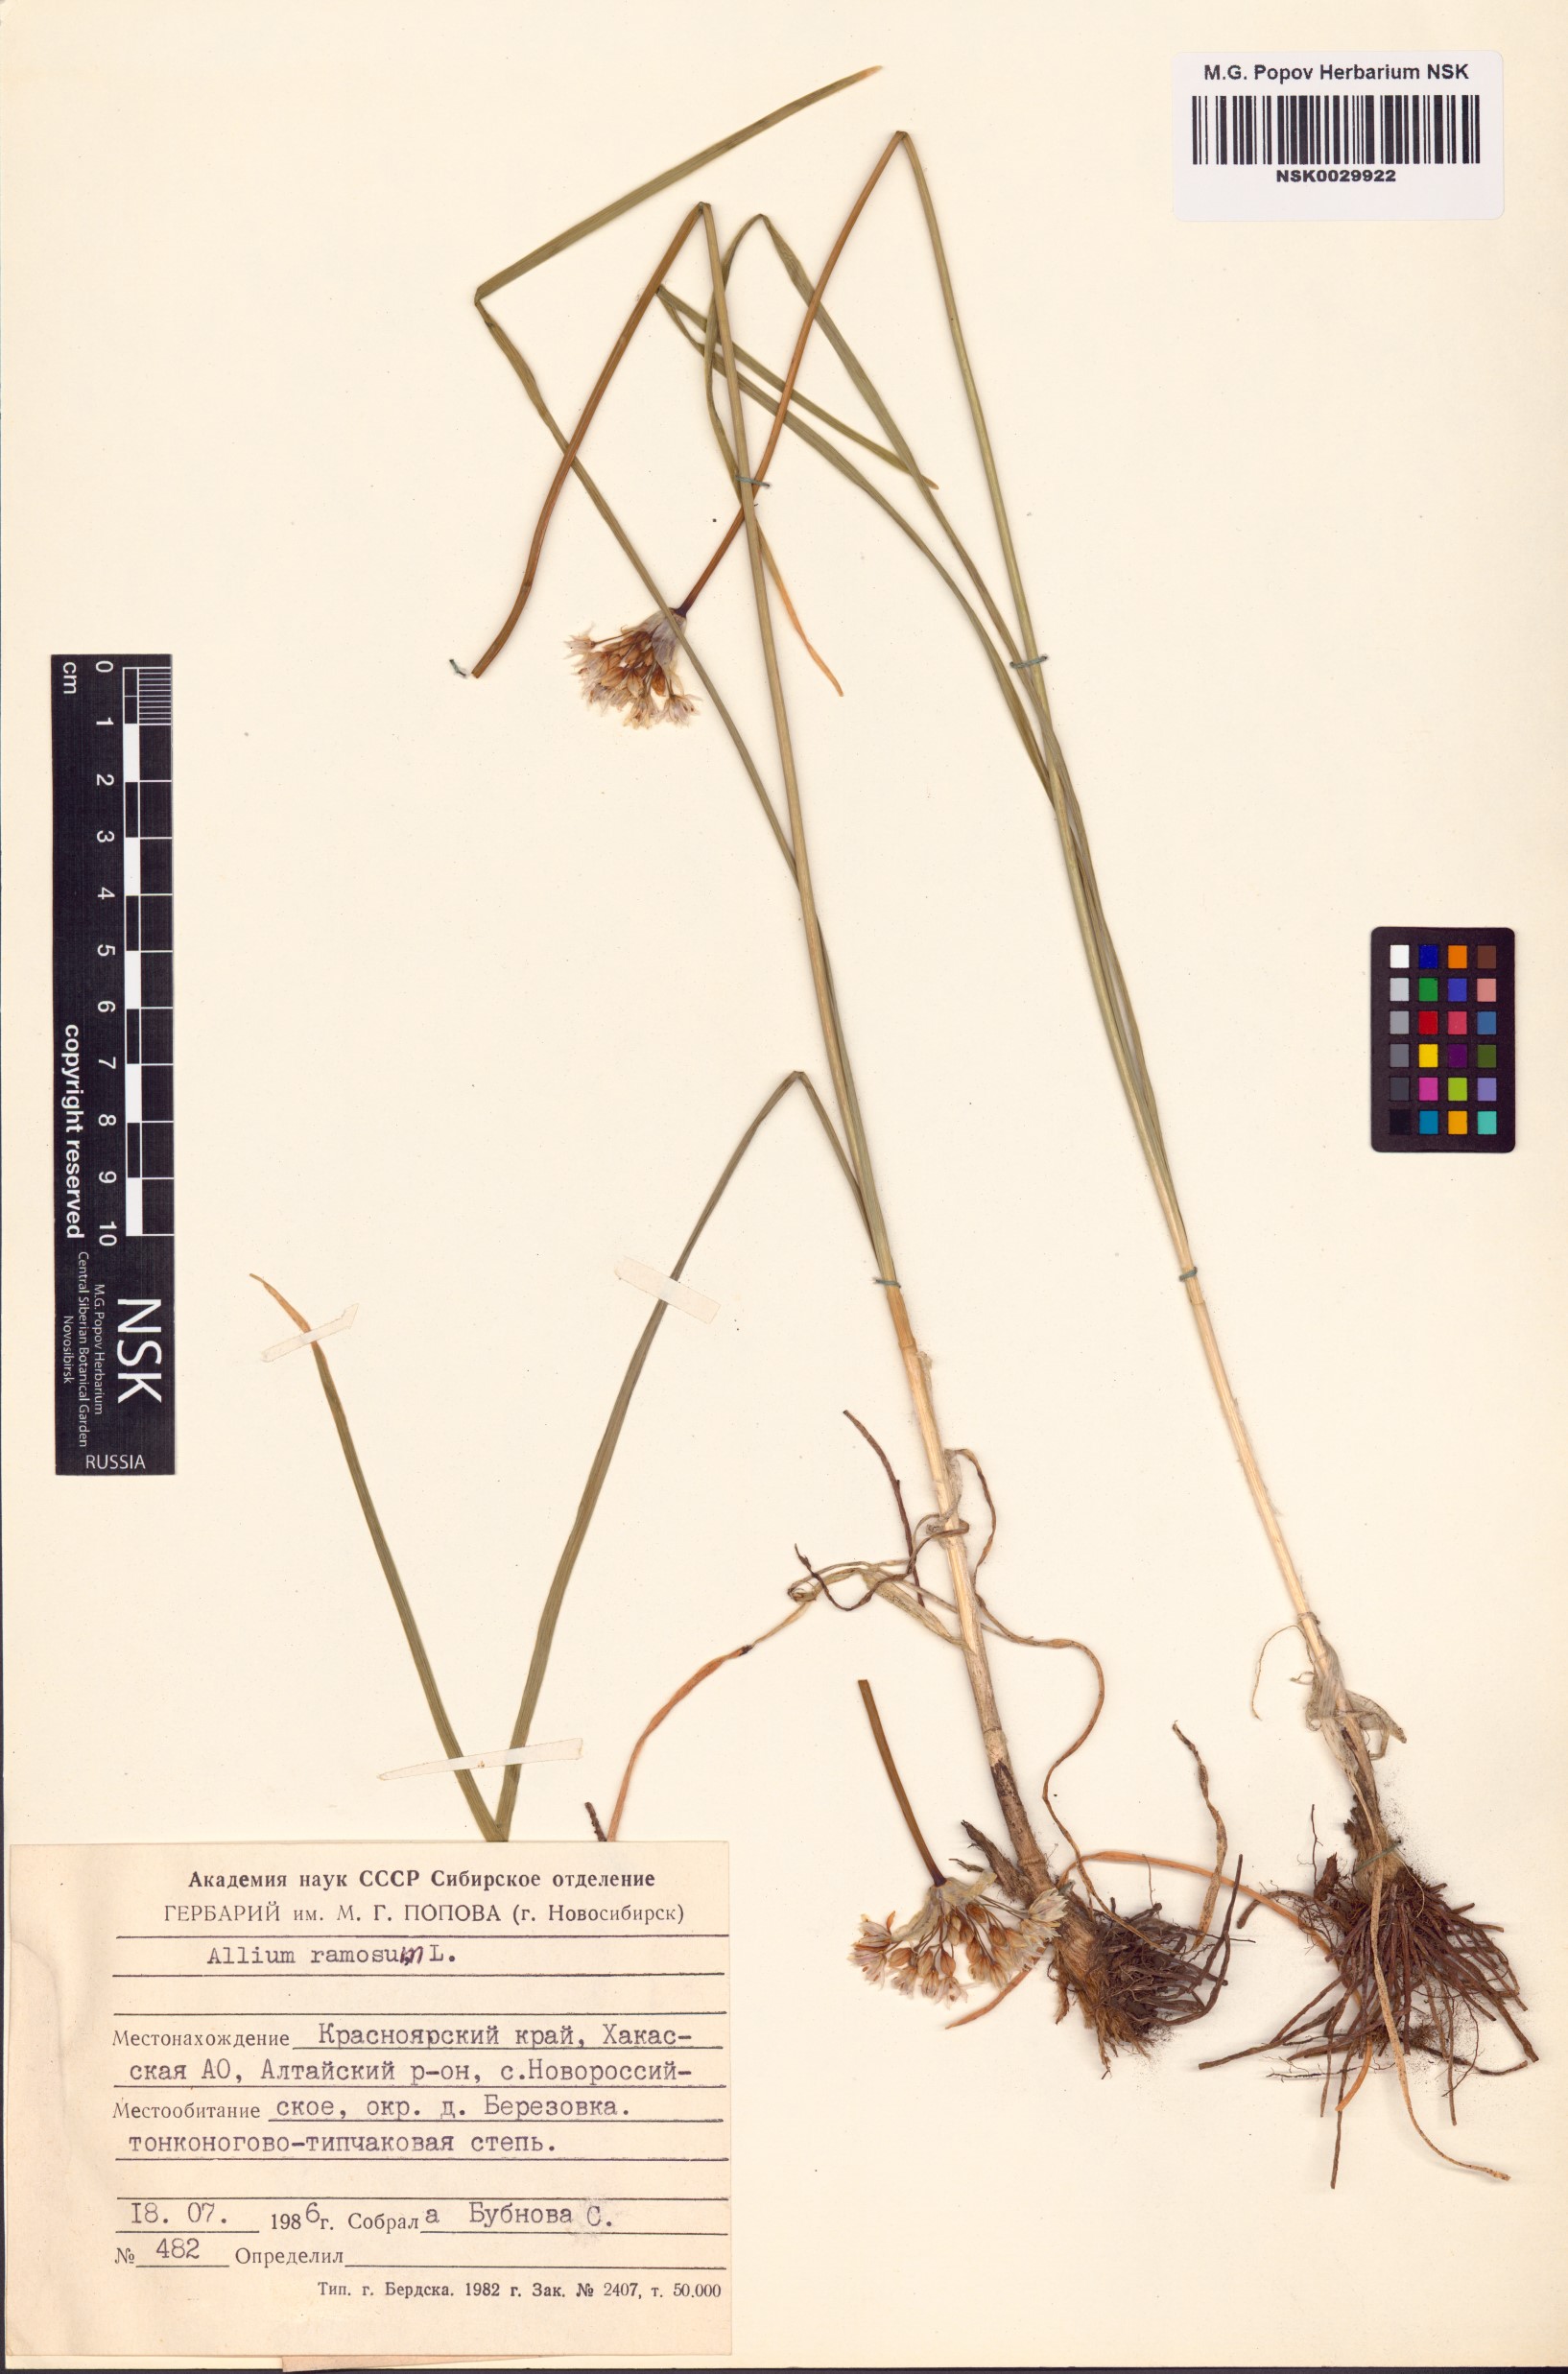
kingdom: Plantae
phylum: Tracheophyta
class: Liliopsida
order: Asparagales
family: Amaryllidaceae
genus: Allium
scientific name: Allium ramosum
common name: Fragrant garlic
